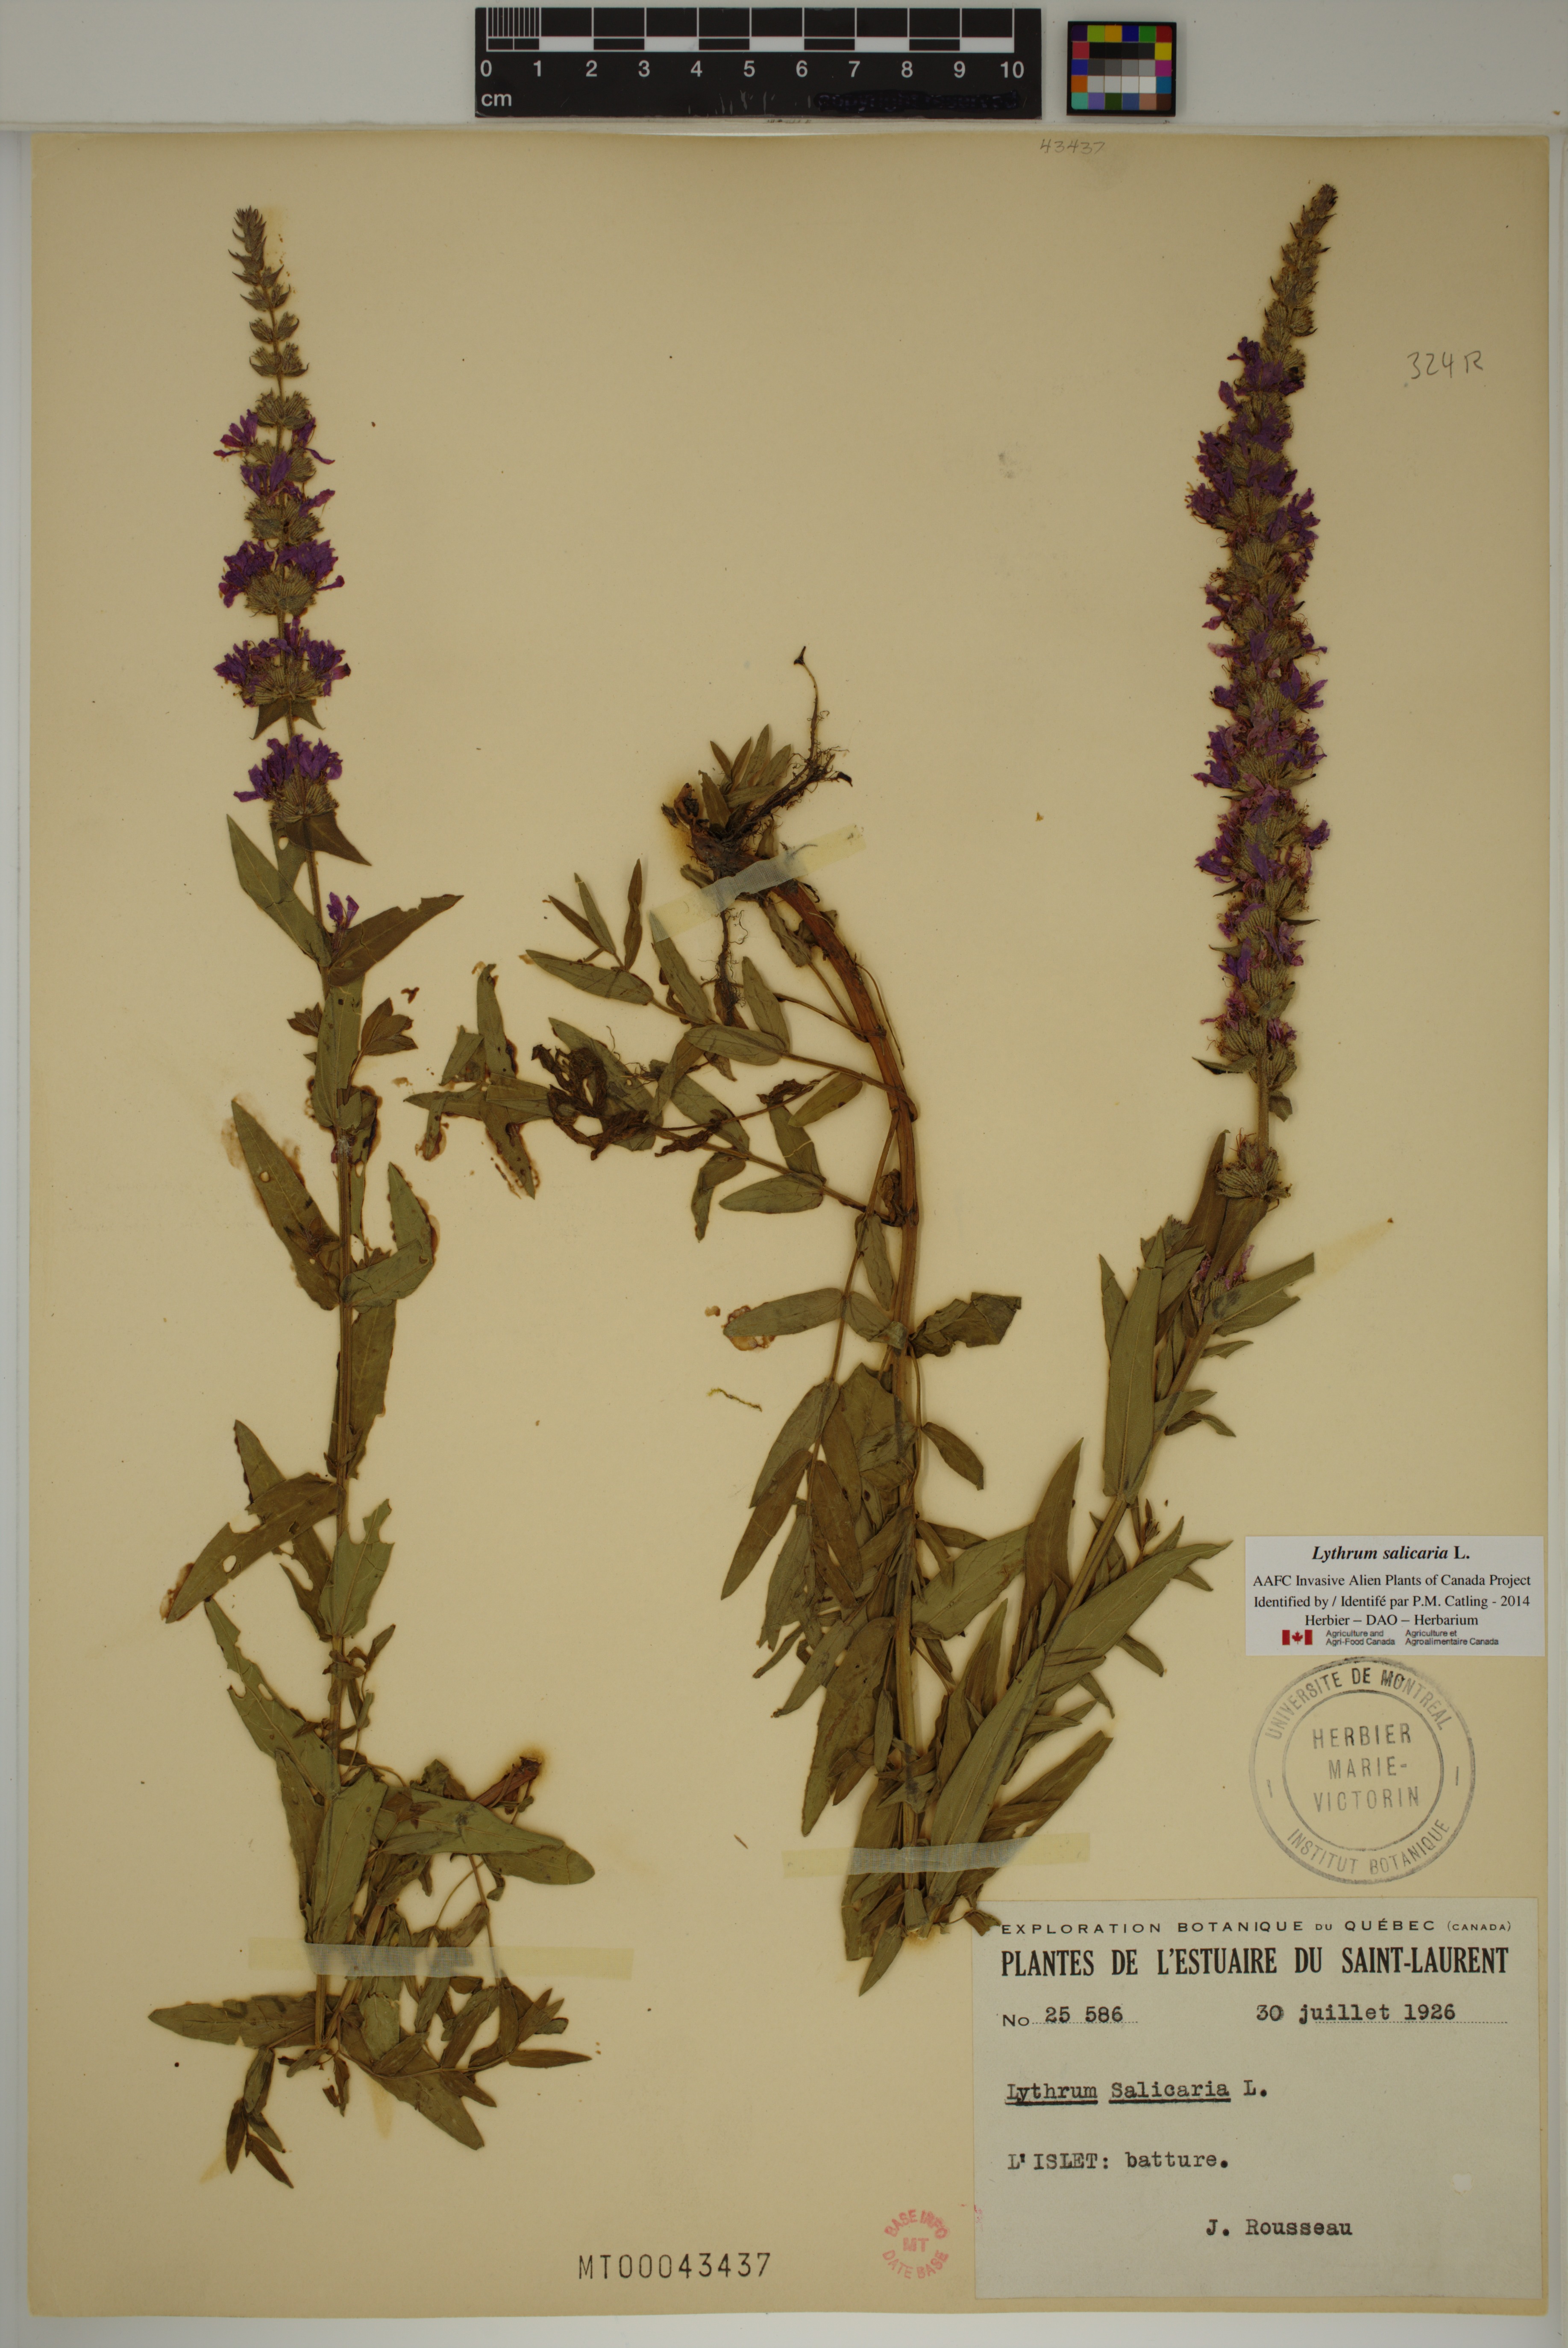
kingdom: Plantae
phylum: Tracheophyta
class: Magnoliopsida
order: Myrtales
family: Lythraceae
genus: Lythrum
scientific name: Lythrum salicaria
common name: Purple loosestrife
